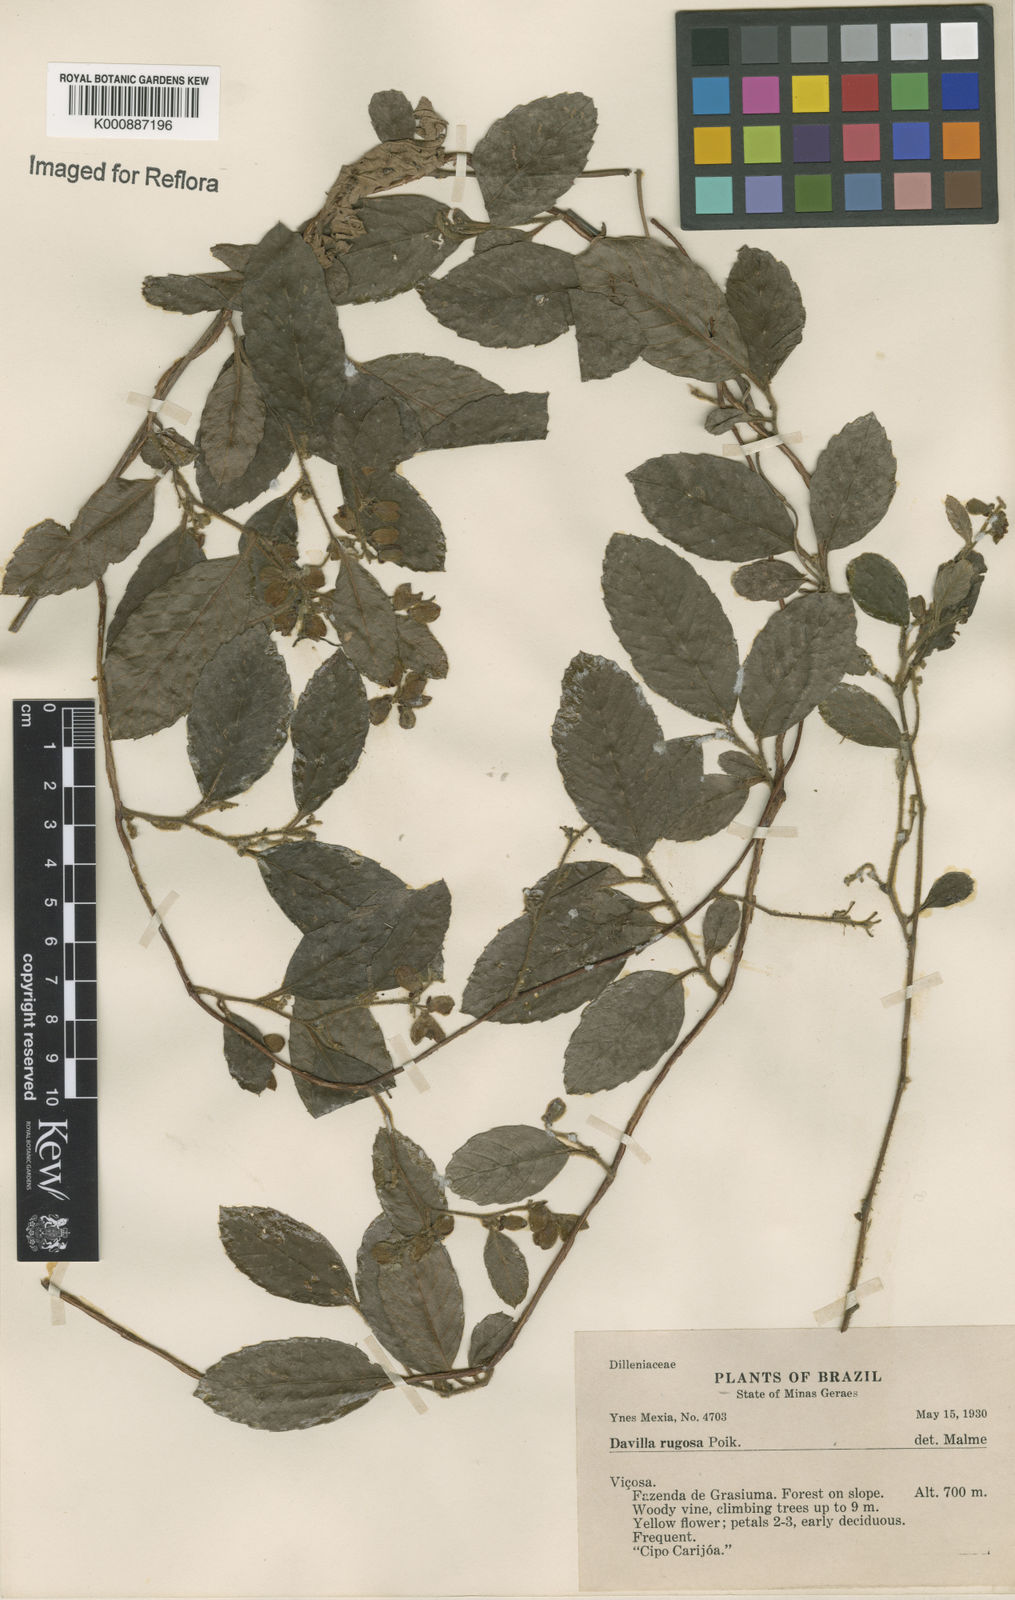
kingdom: Plantae
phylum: Tracheophyta
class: Magnoliopsida
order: Dilleniales
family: Dilleniaceae
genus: Davilla
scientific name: Davilla rugosa
